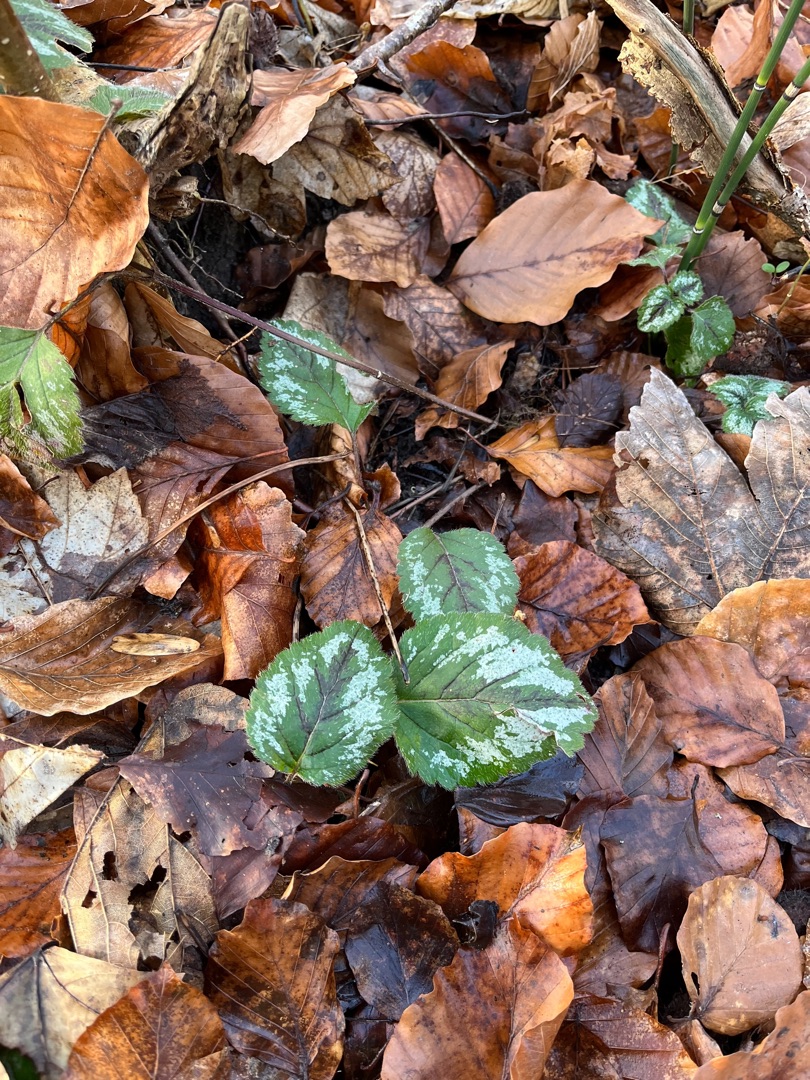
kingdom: Plantae
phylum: Tracheophyta
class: Magnoliopsida
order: Lamiales
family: Lamiaceae
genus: Lamium
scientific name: Lamium galeobdolon
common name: Have-guldnælde
